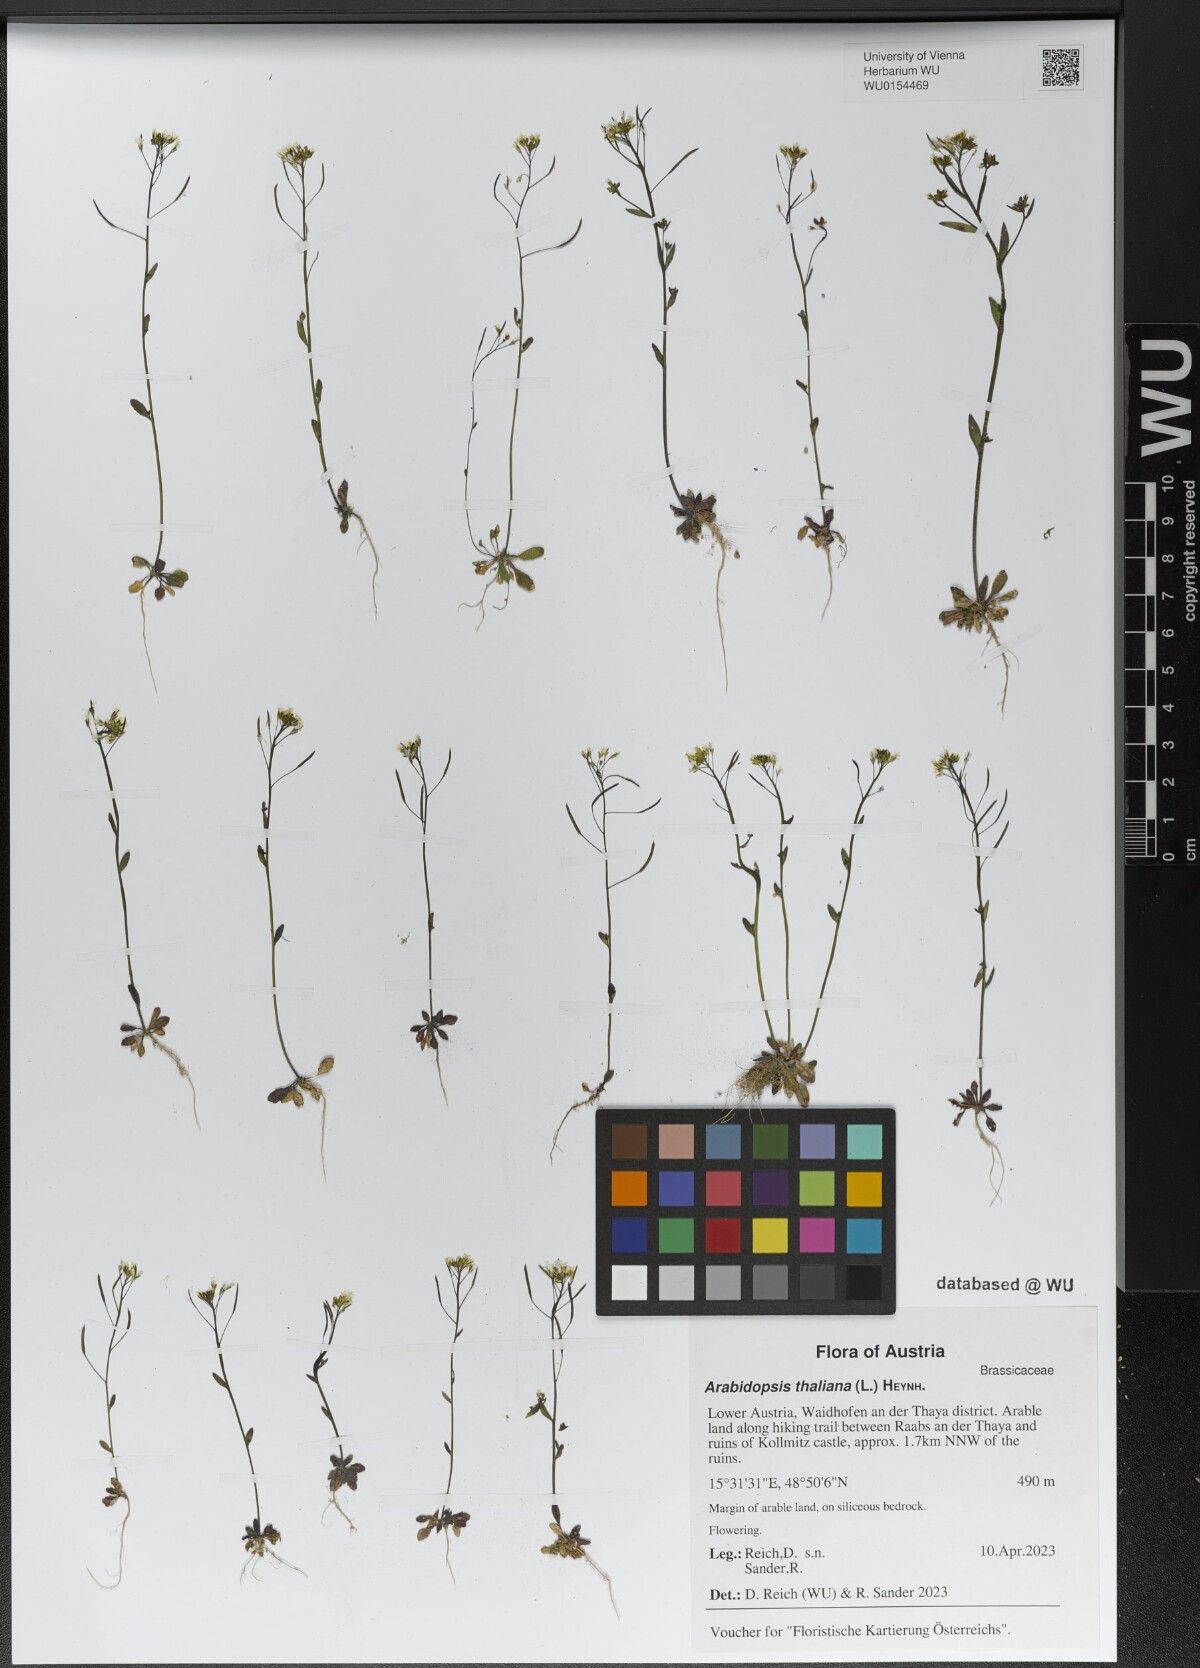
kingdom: Plantae
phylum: Tracheophyta
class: Magnoliopsida
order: Brassicales
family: Brassicaceae
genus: Arabidopsis
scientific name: Arabidopsis thaliana
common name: Thale cress
